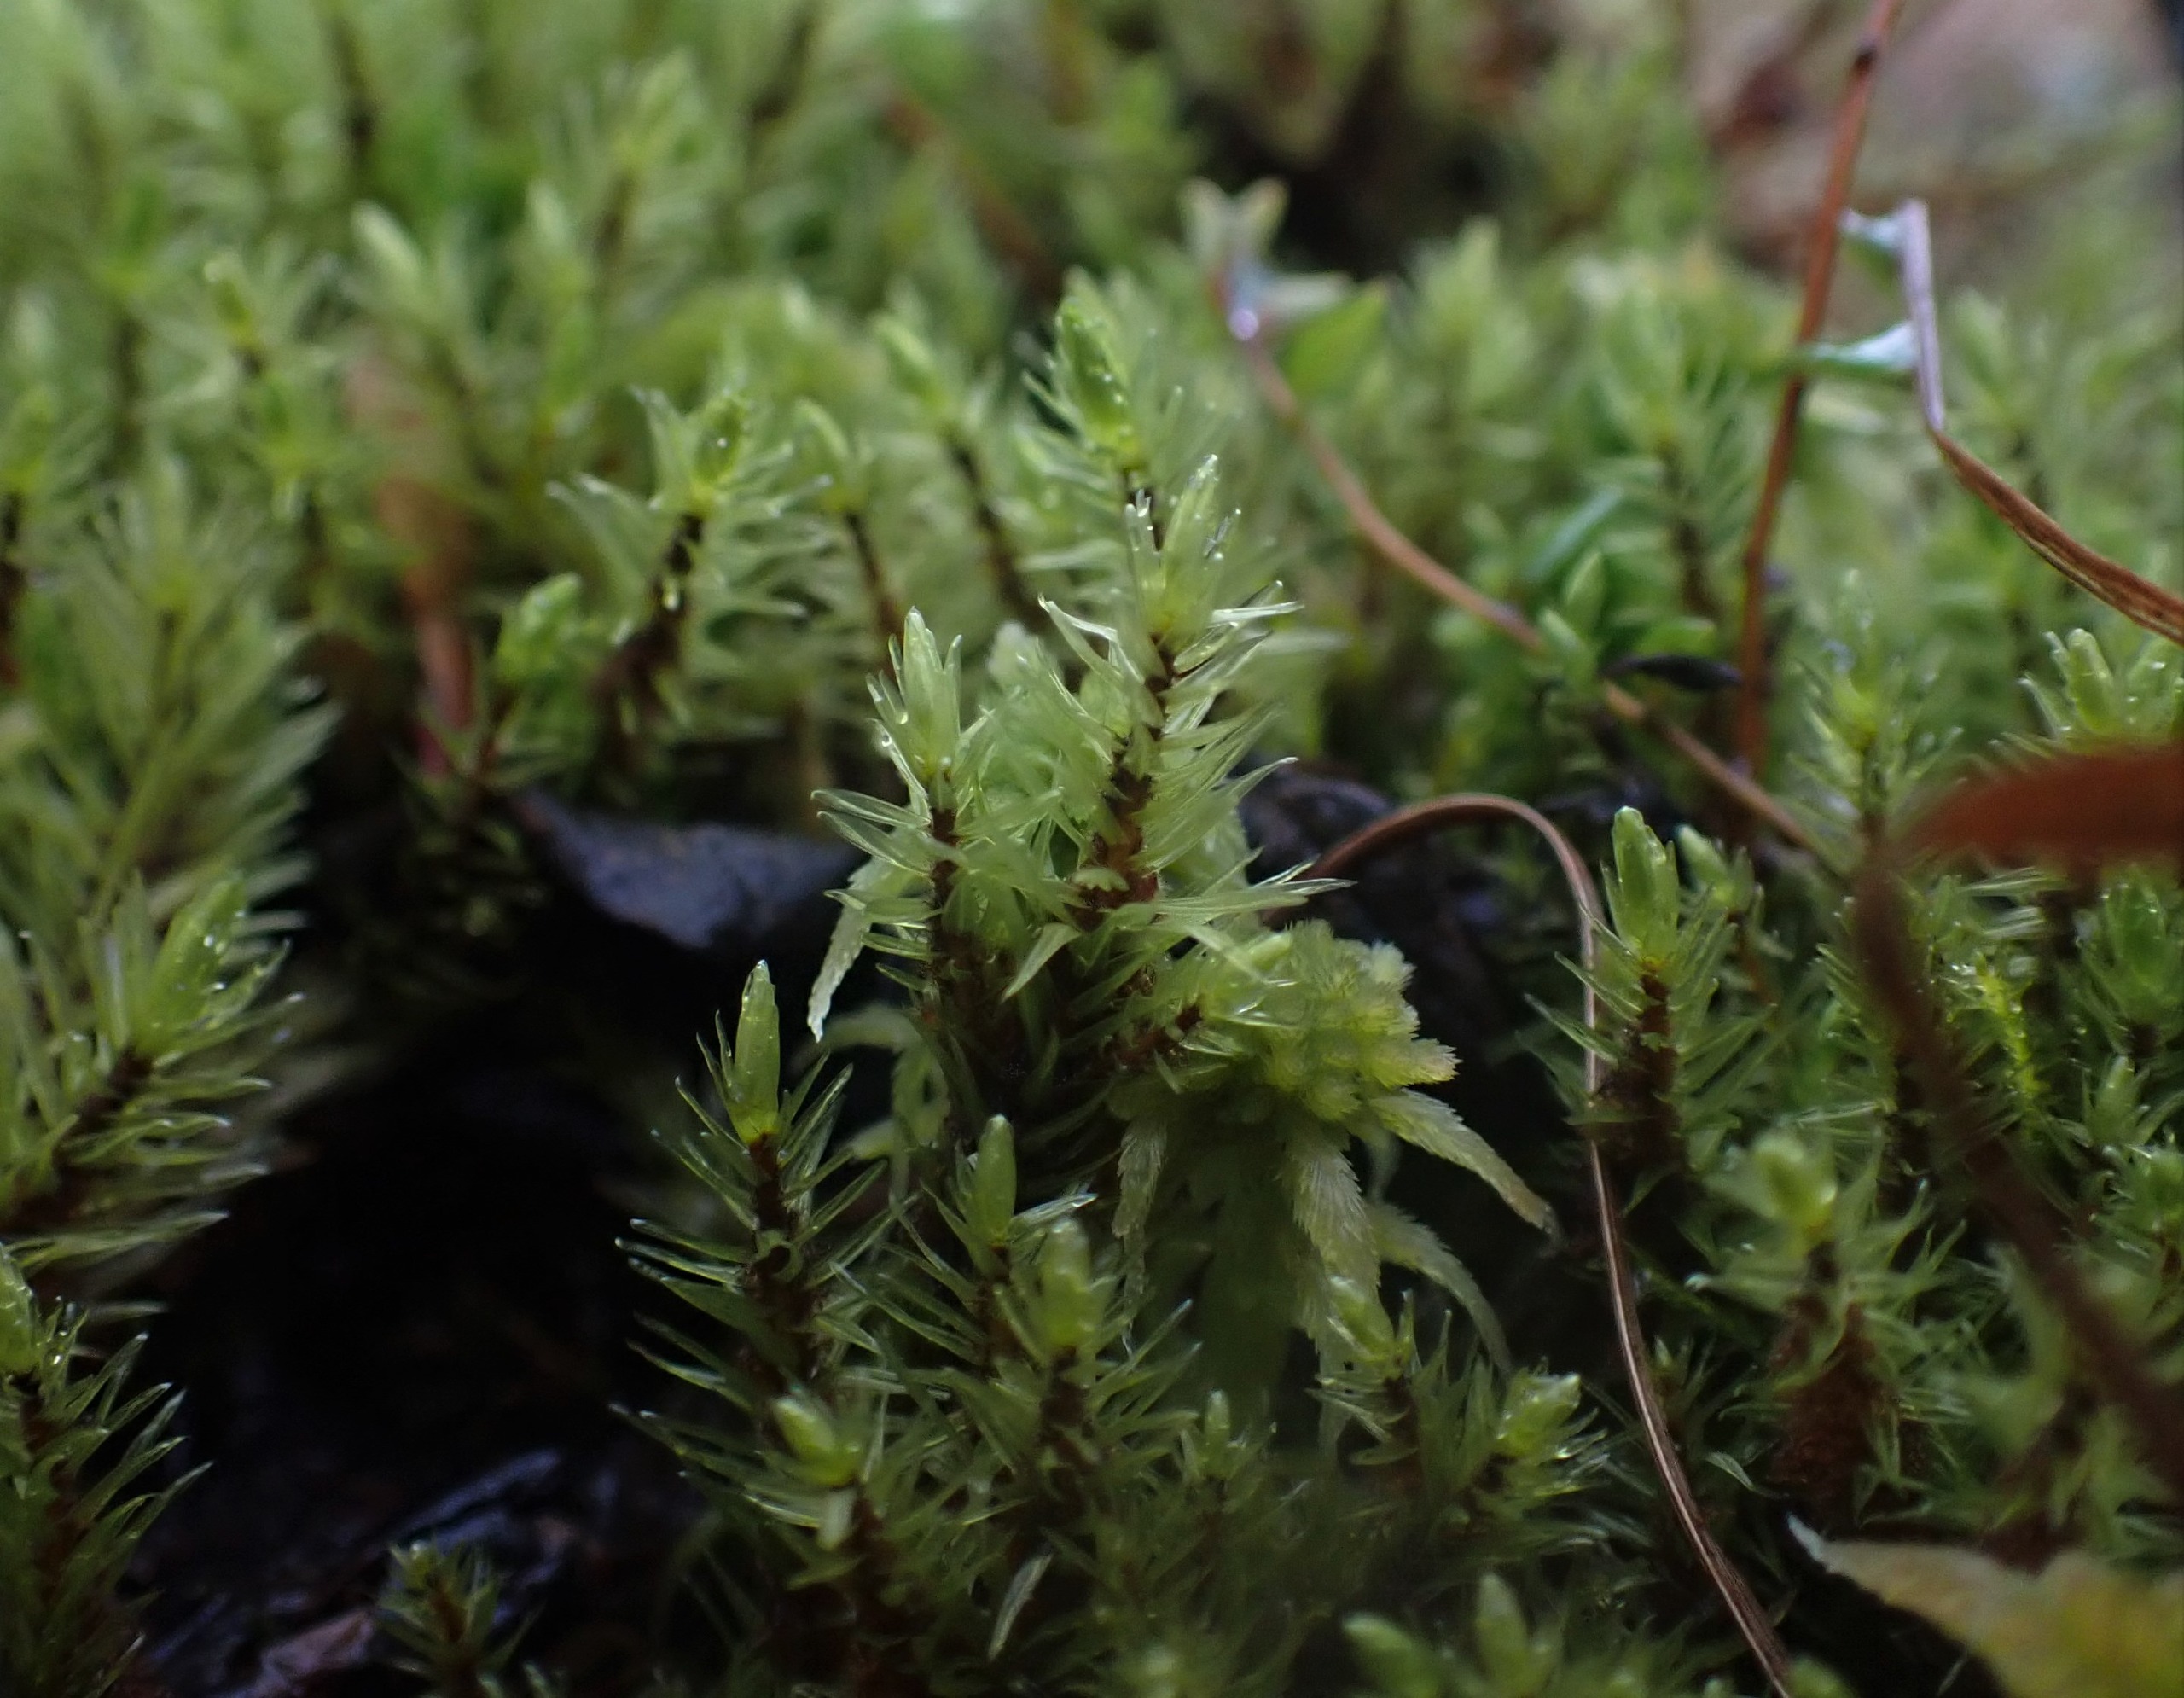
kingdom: Plantae
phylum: Bryophyta
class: Bryopsida
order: Aulacomniales
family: Aulacomniaceae
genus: Aulacomnium
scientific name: Aulacomnium palustre
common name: Almindelig filtmos
